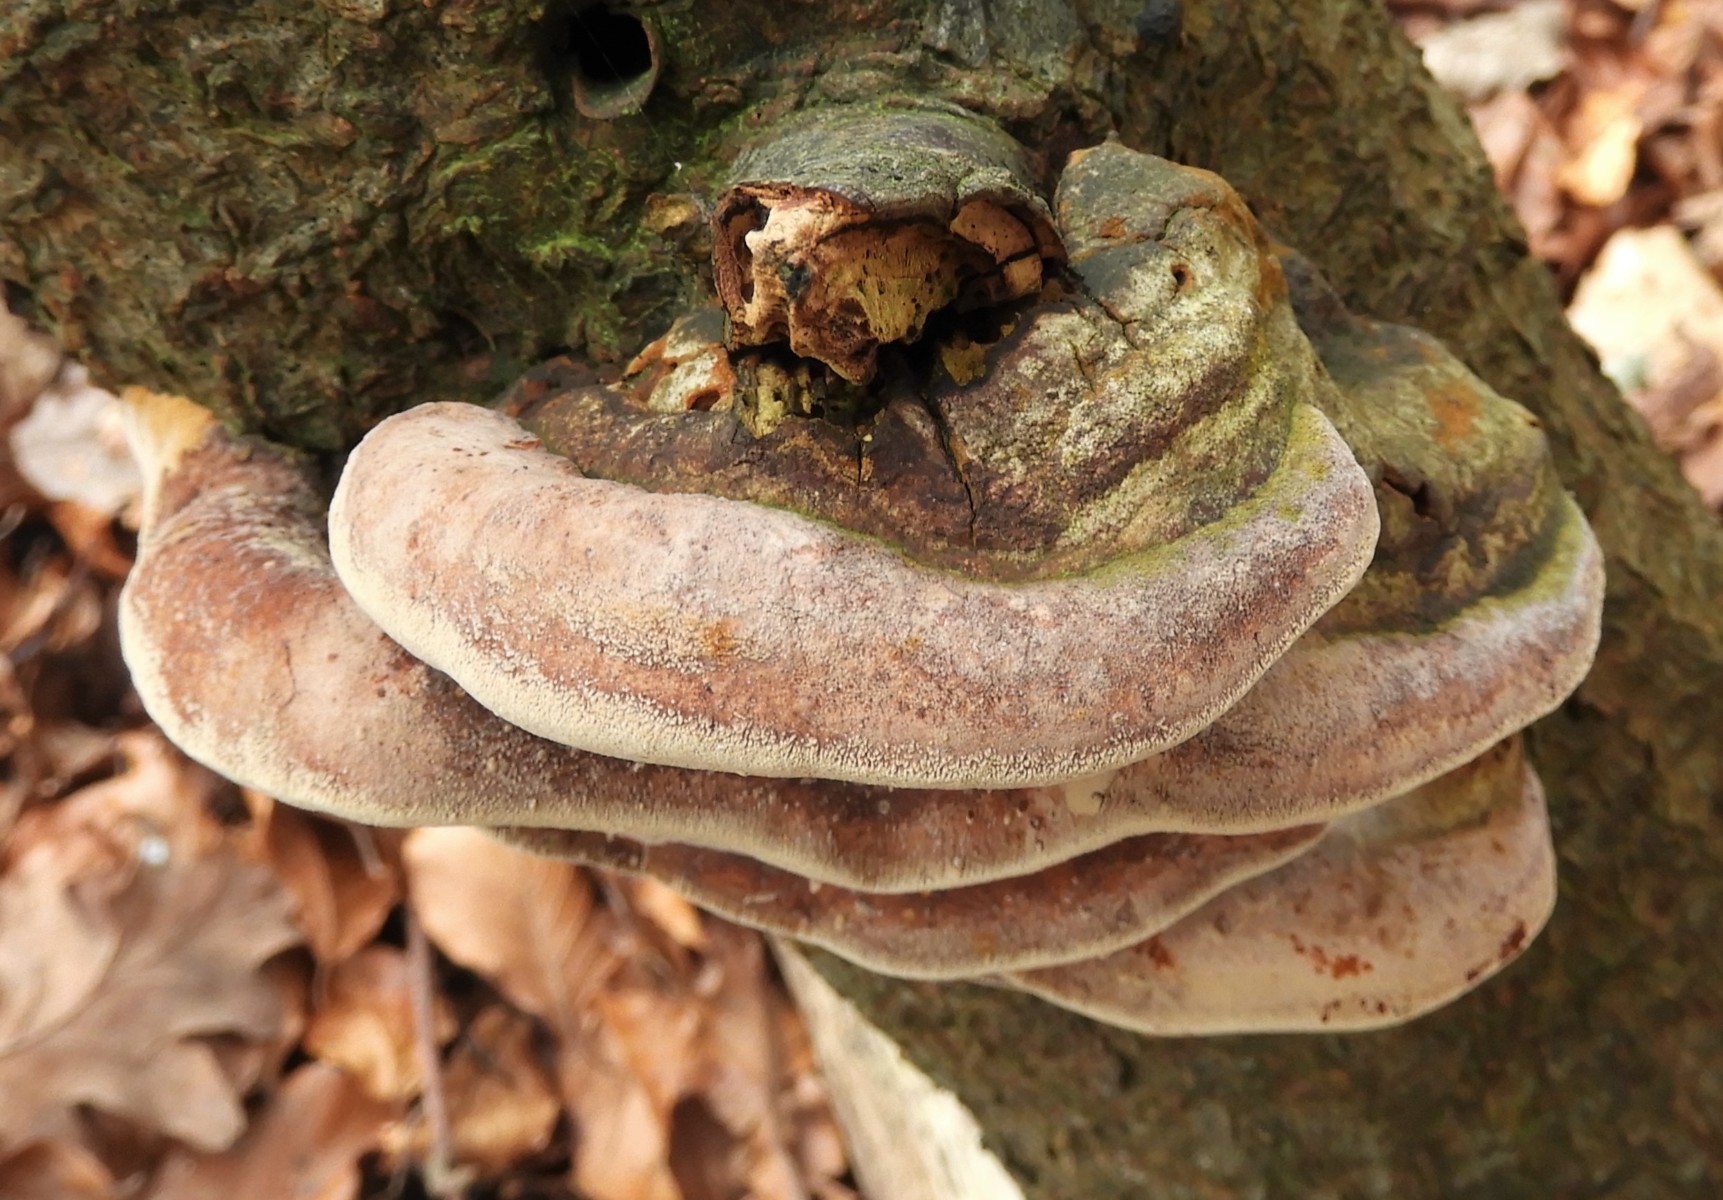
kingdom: Fungi
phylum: Basidiomycota
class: Agaricomycetes
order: Hymenochaetales
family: Hymenochaetaceae
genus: Phellinus
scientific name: Phellinus pomaceus
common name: blomme-ildporesvamp
